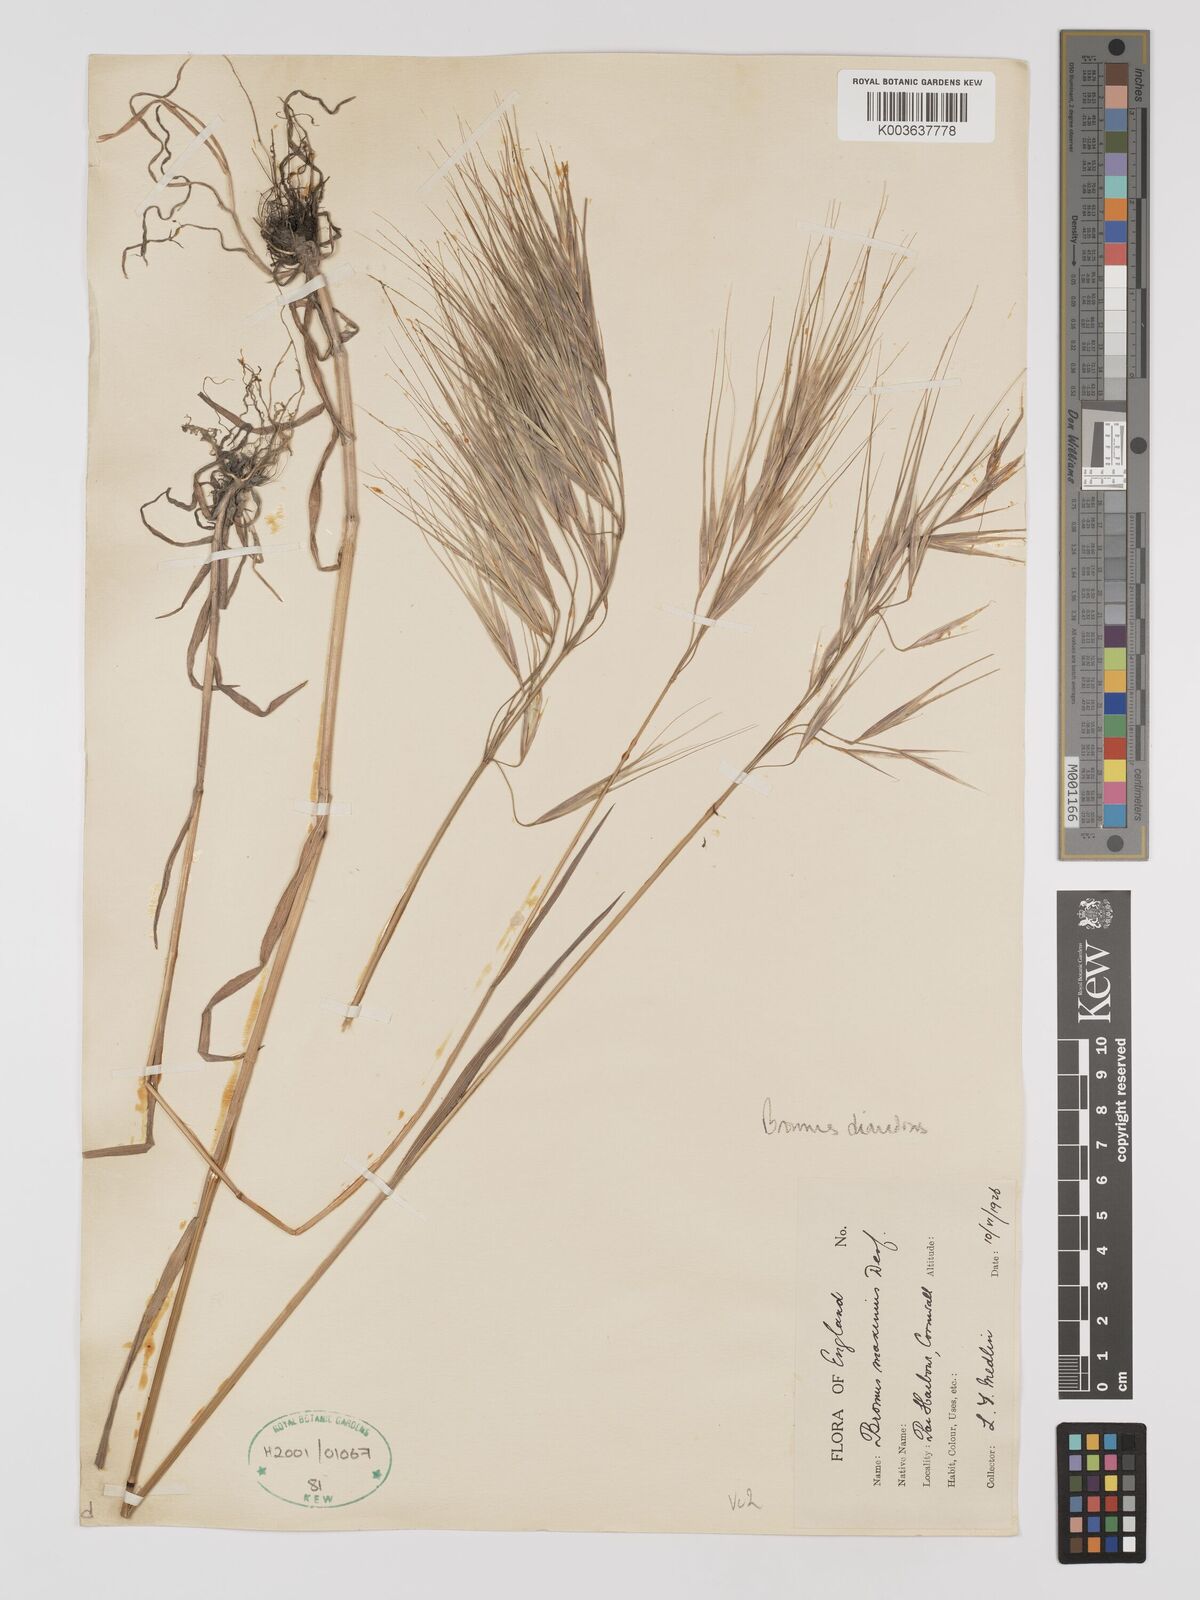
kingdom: Plantae
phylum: Tracheophyta
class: Liliopsida
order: Poales
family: Poaceae
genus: Bromus
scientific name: Bromus
